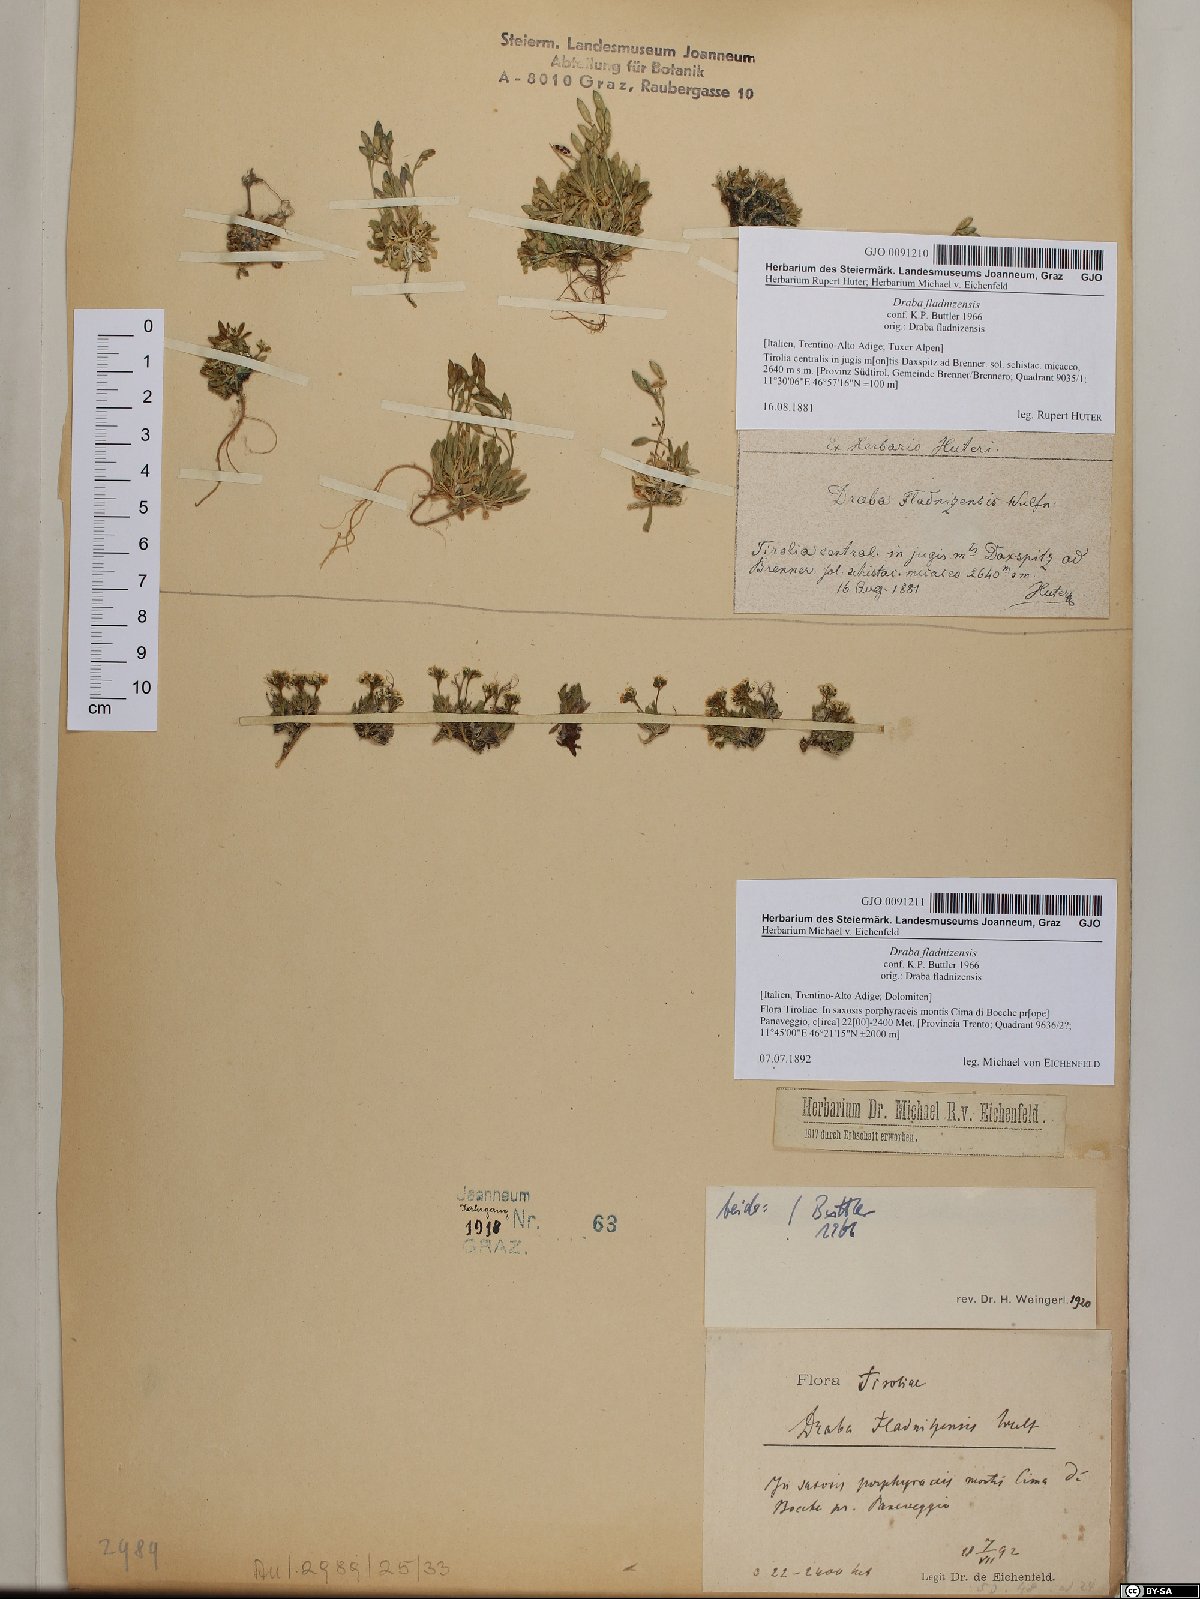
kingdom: Plantae
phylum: Tracheophyta
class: Magnoliopsida
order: Brassicales
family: Brassicaceae
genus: Draba
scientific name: Draba fladnizensis
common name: Austrian draba
